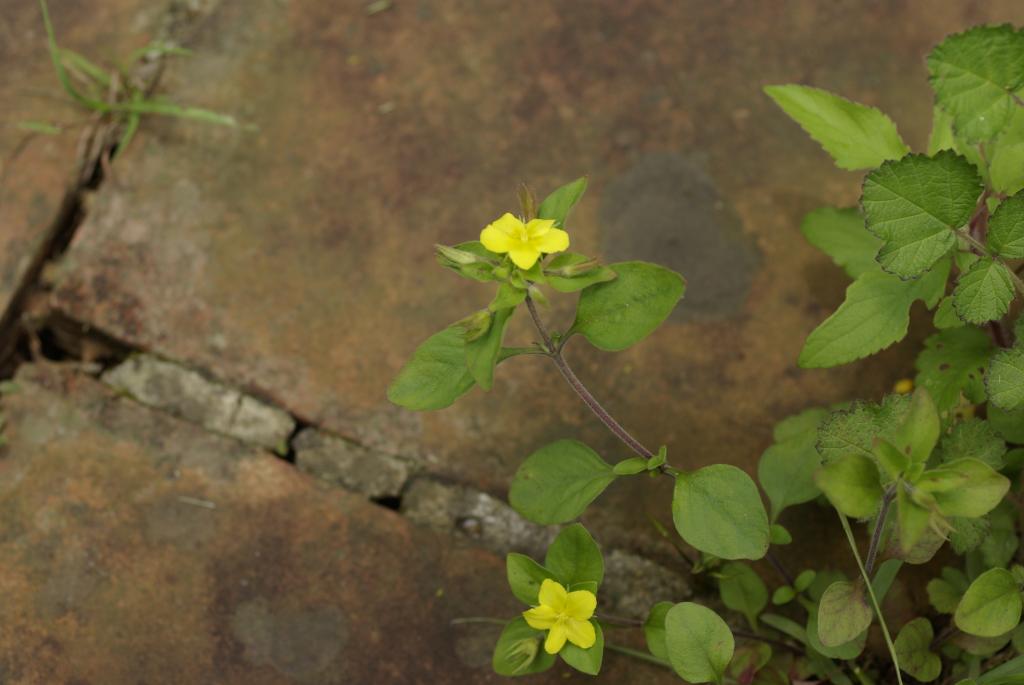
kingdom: Plantae
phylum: Tracheophyta
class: Magnoliopsida
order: Ericales
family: Primulaceae
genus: Lysimachia
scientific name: Lysimachia remota
